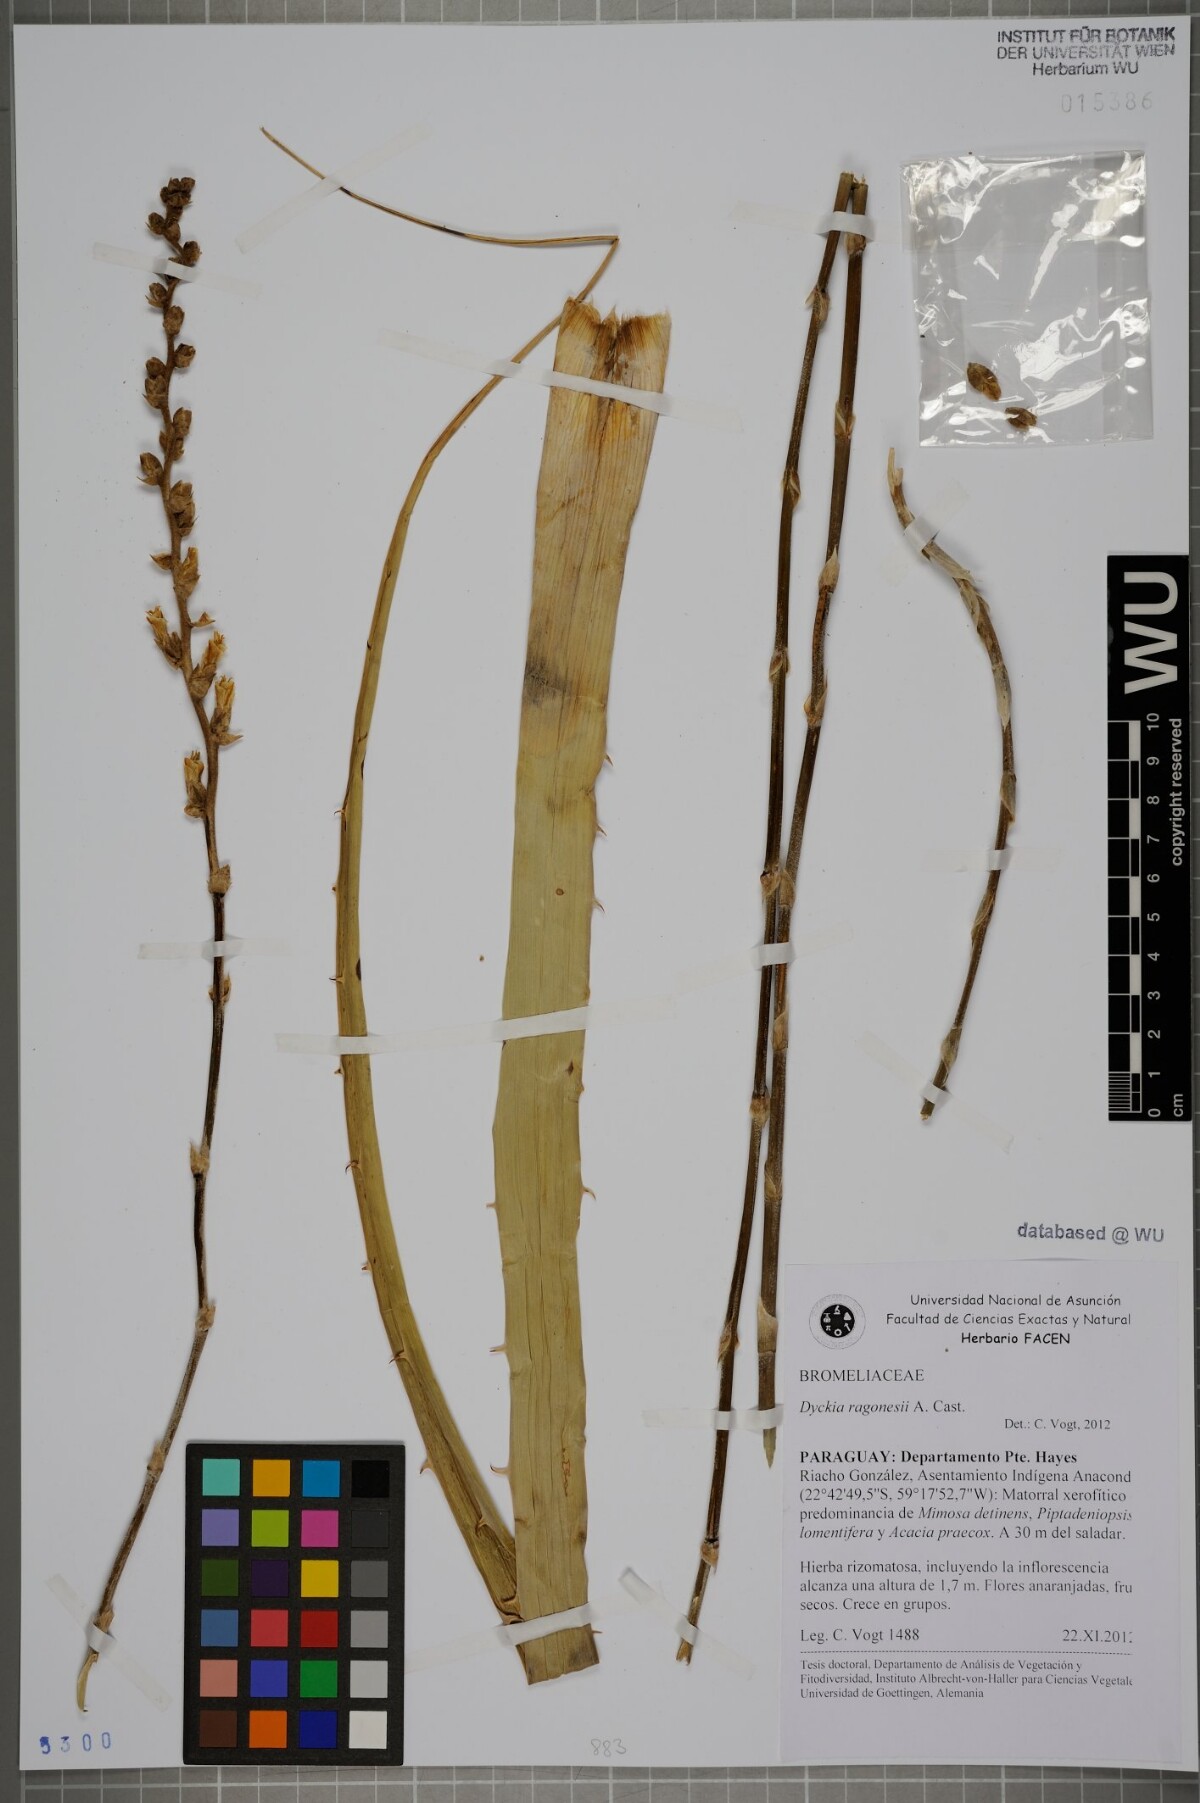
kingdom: Plantae
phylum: Tracheophyta
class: Liliopsida
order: Poales
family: Bromeliaceae
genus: Dyckia
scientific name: Dyckia ragonesei
